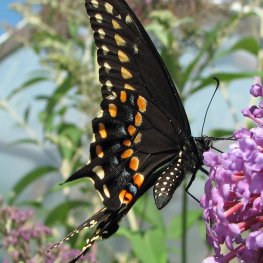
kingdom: Animalia
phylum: Arthropoda
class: Insecta
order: Lepidoptera
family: Papilionidae
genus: Papilio
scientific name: Papilio polyxenes
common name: Black Swallowtail
